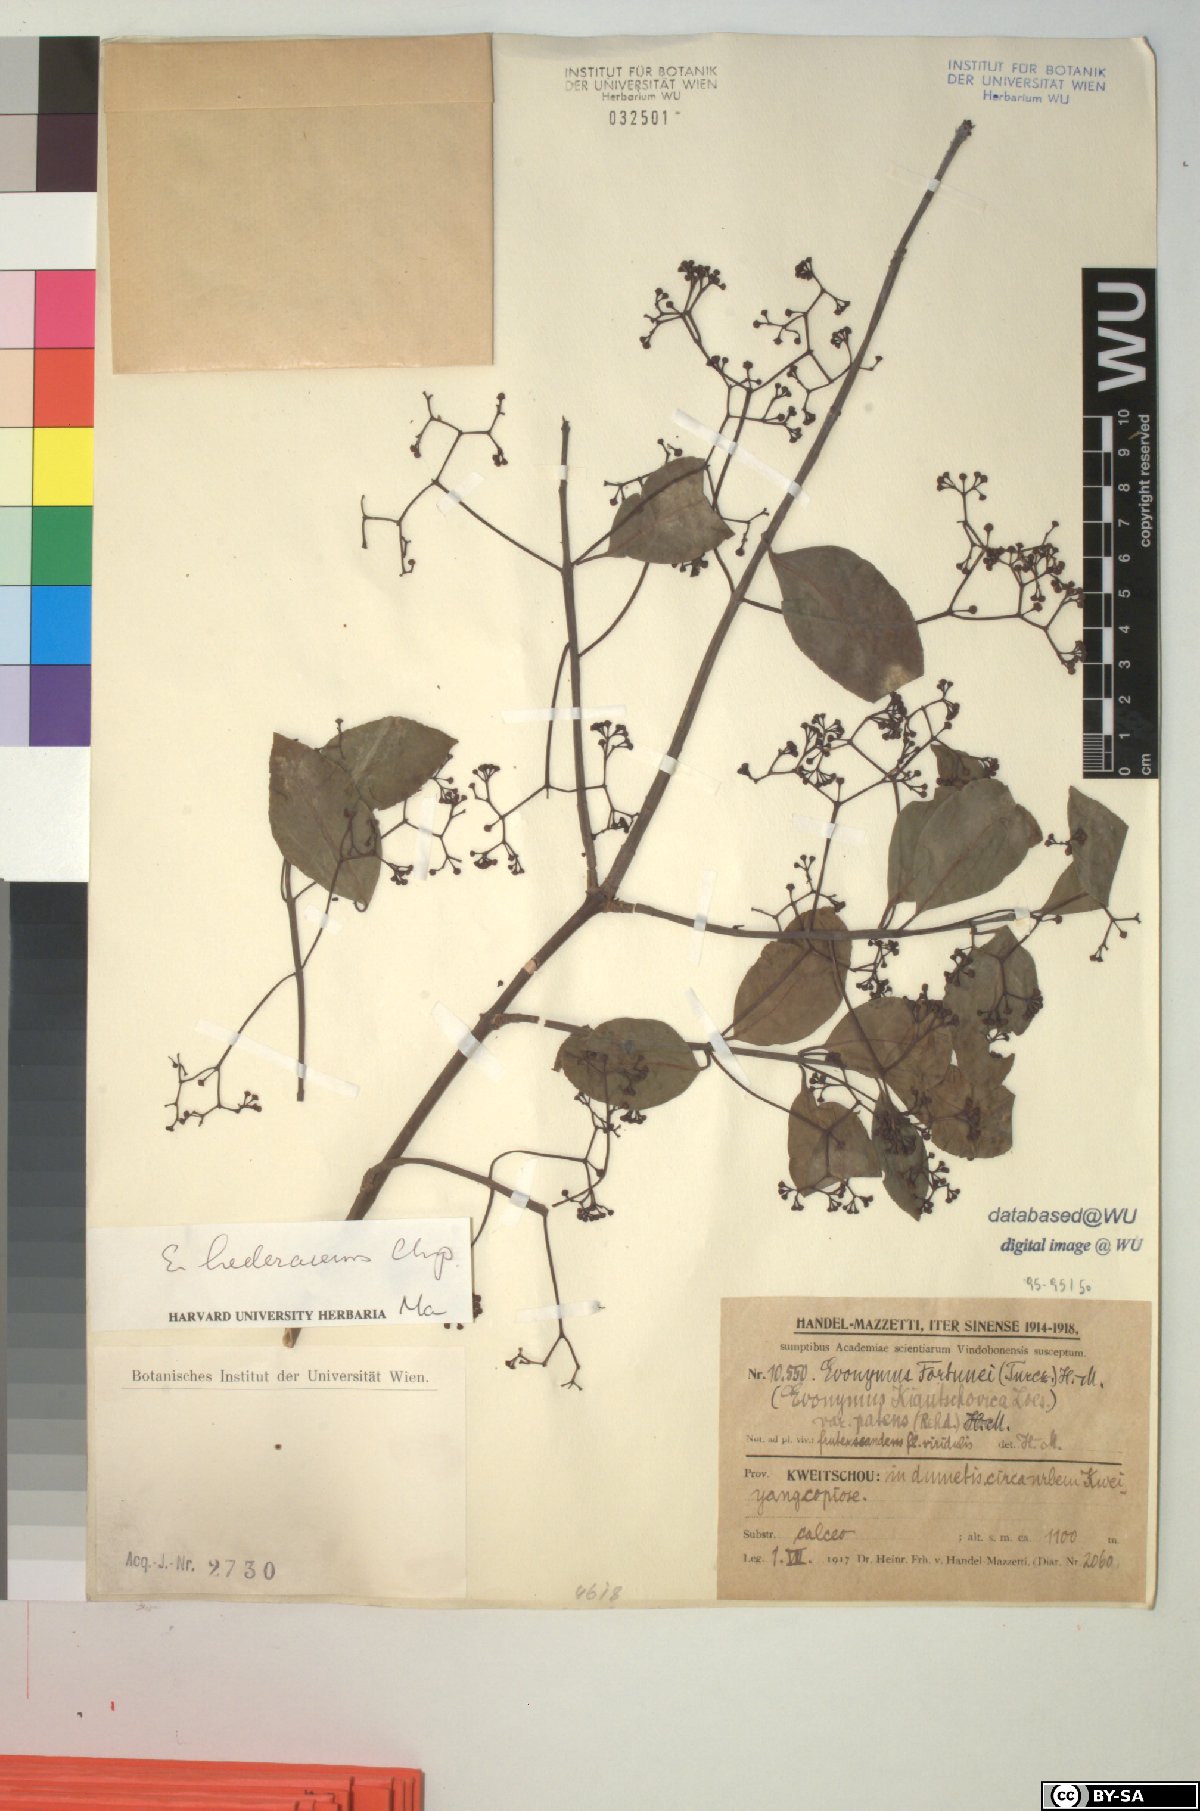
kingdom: Plantae
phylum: Tracheophyta
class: Magnoliopsida
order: Celastrales
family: Celastraceae
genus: Euonymus
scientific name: Euonymus fortunei
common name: Climbing euonymus
